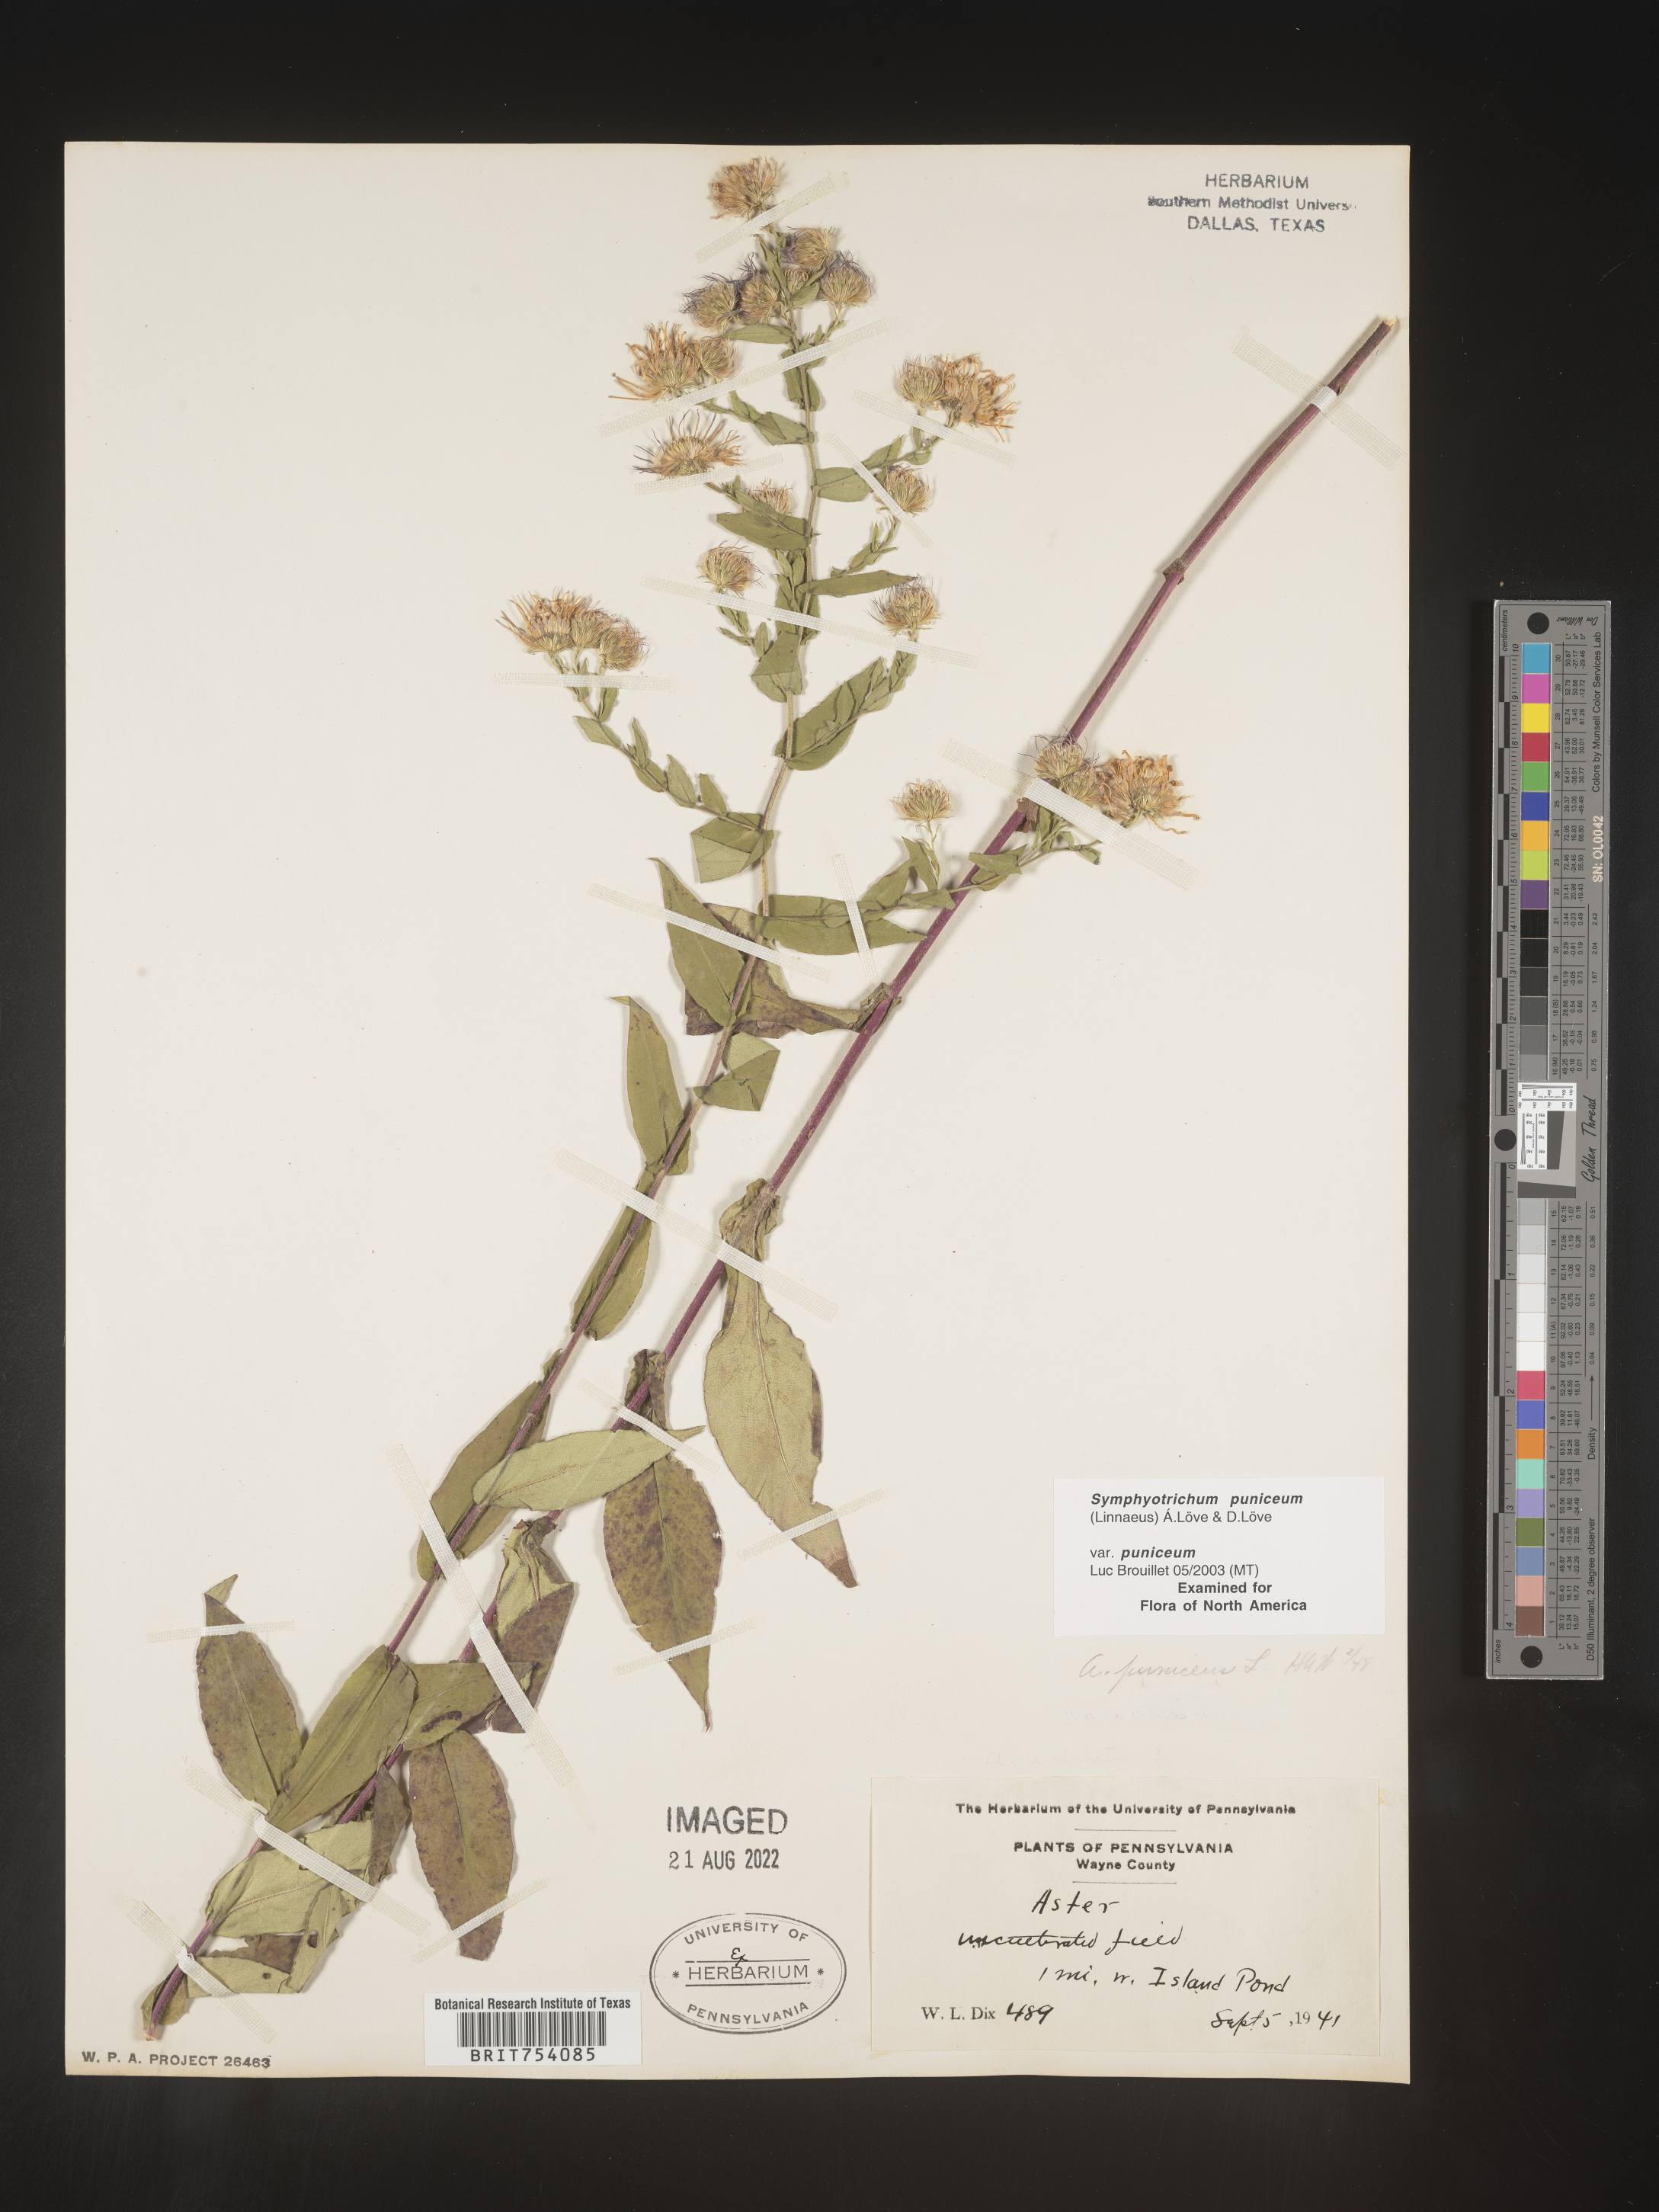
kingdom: Plantae
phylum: Tracheophyta
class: Magnoliopsida
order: Asterales
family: Asteraceae
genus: Symphyotrichum
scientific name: Symphyotrichum puniceum
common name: Bog aster
